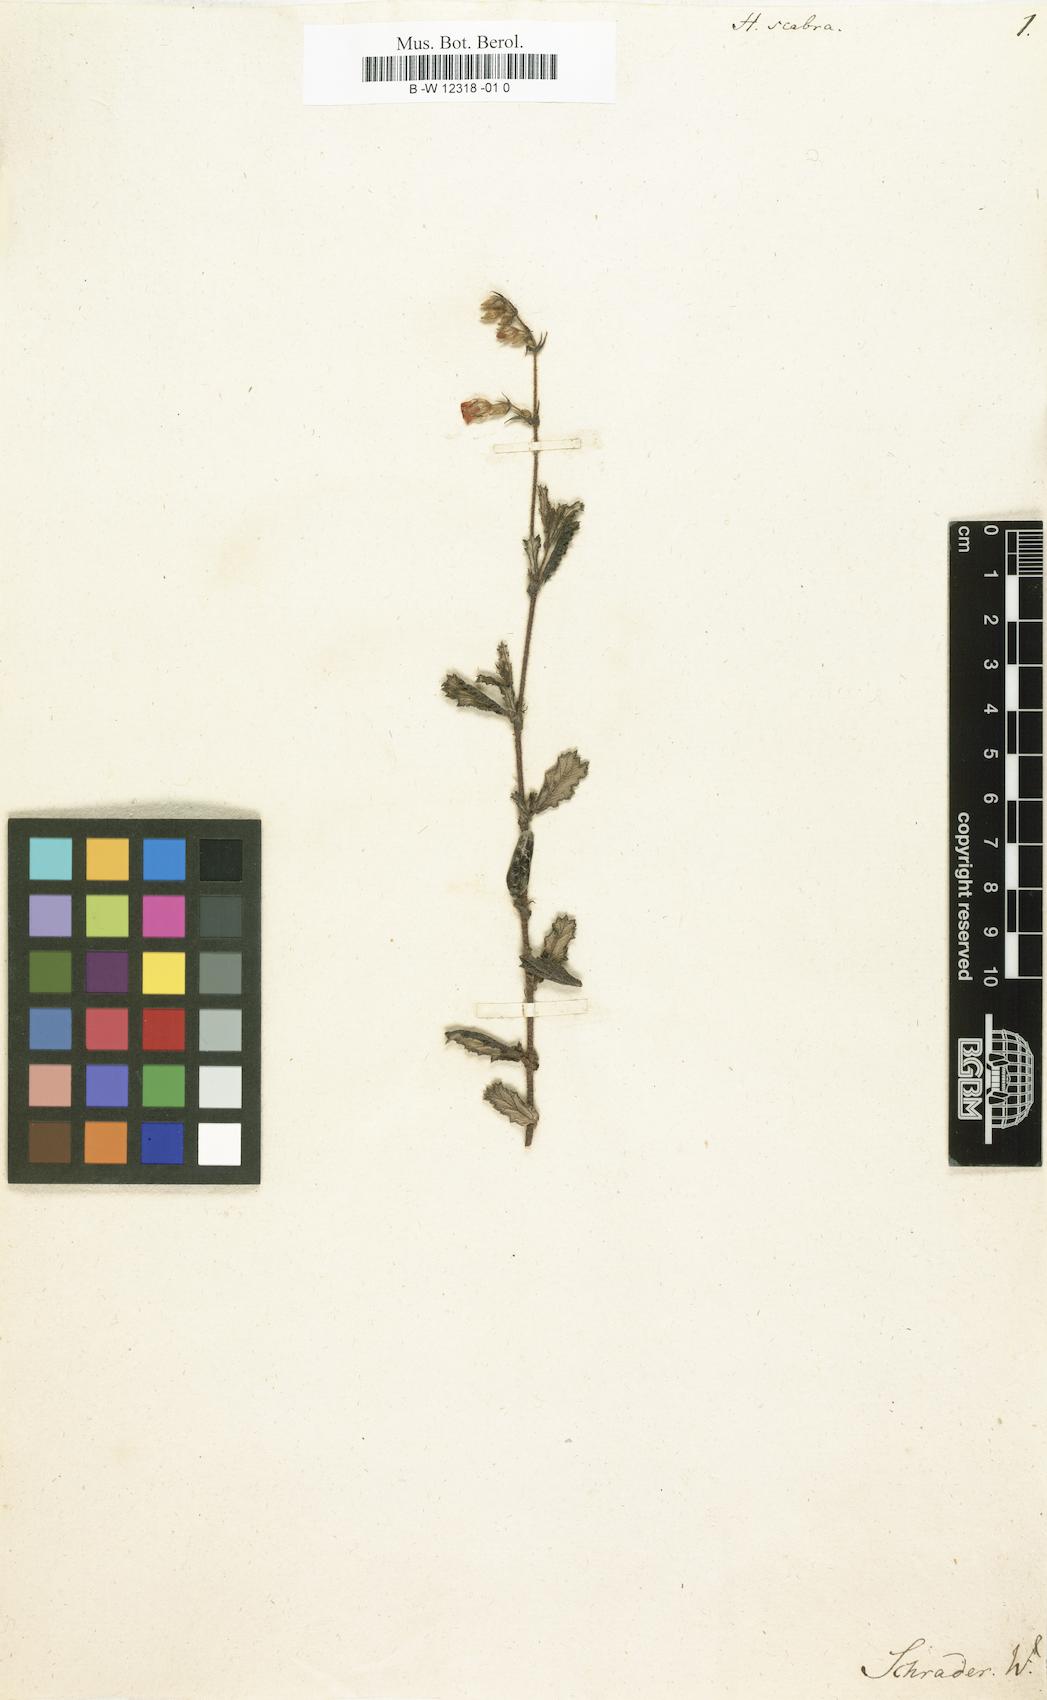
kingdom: Plantae
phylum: Tracheophyta
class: Magnoliopsida
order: Malvales
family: Malvaceae
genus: Hermannia
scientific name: Hermannia scabra
